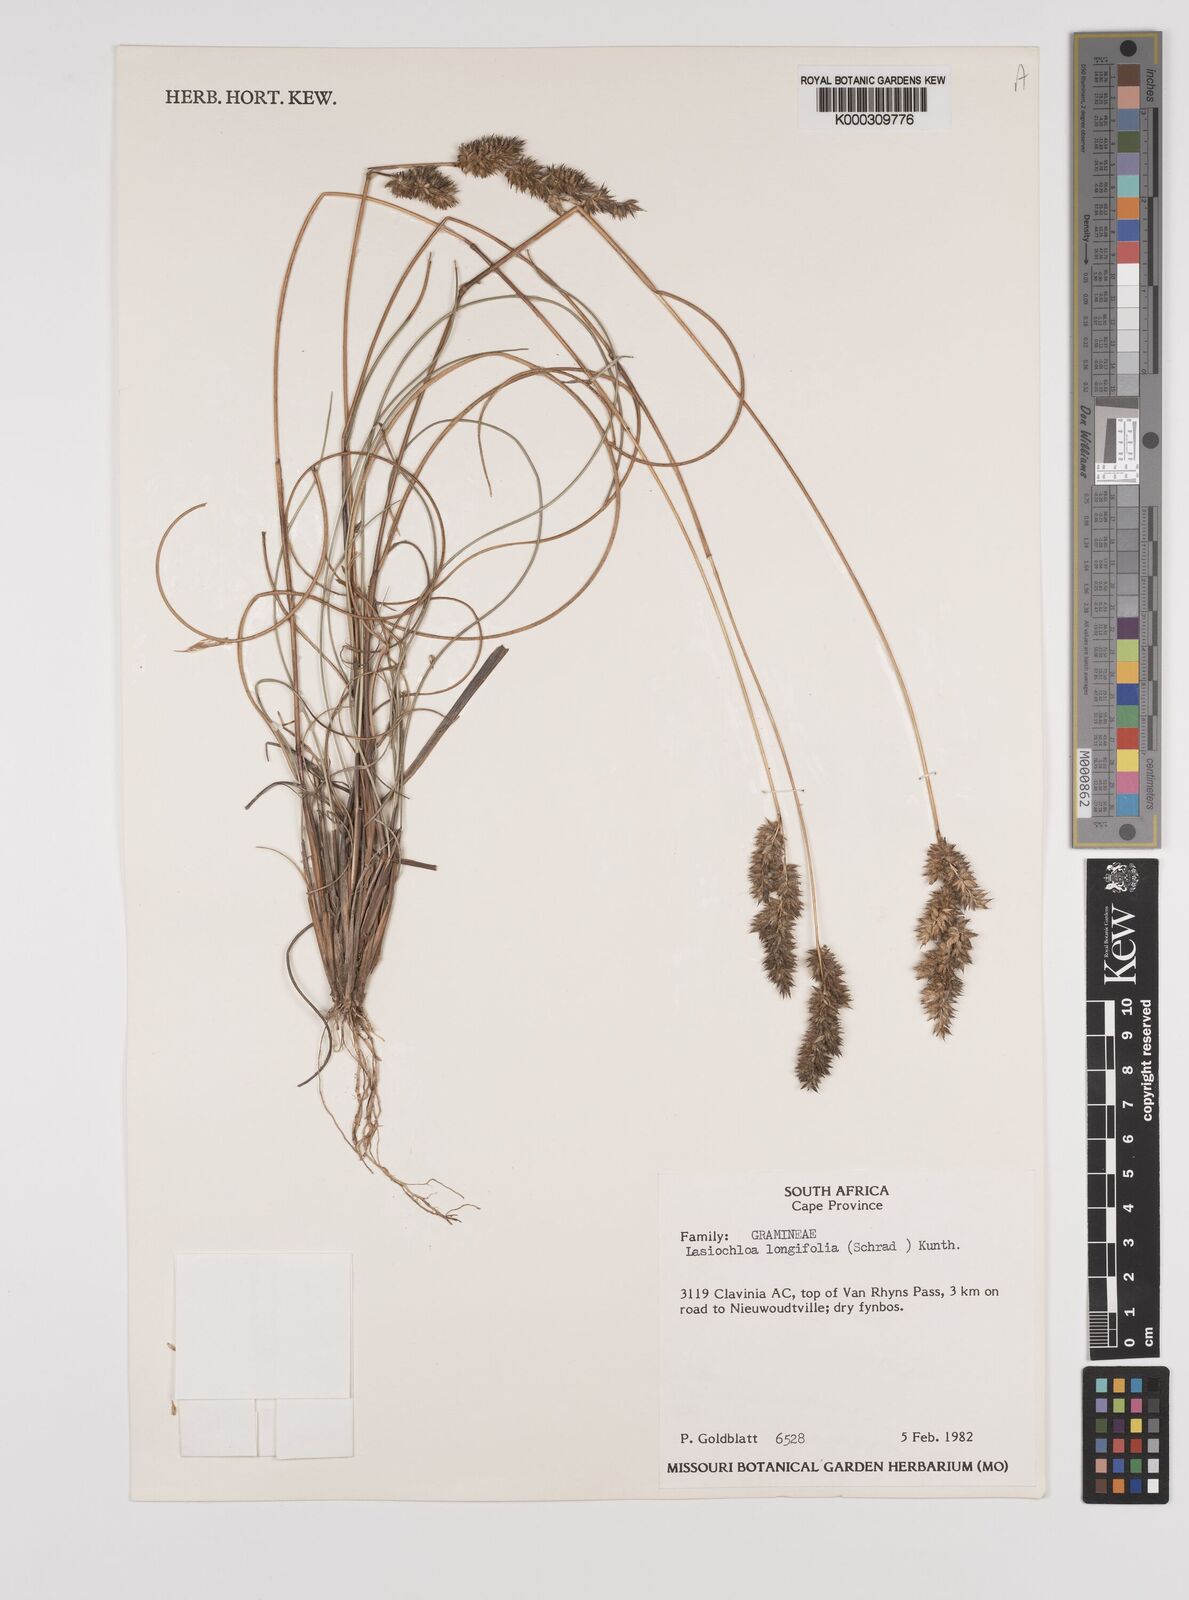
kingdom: Plantae
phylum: Tracheophyta
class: Liliopsida
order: Poales
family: Poaceae
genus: Tribolium
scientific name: Tribolium hispidum
